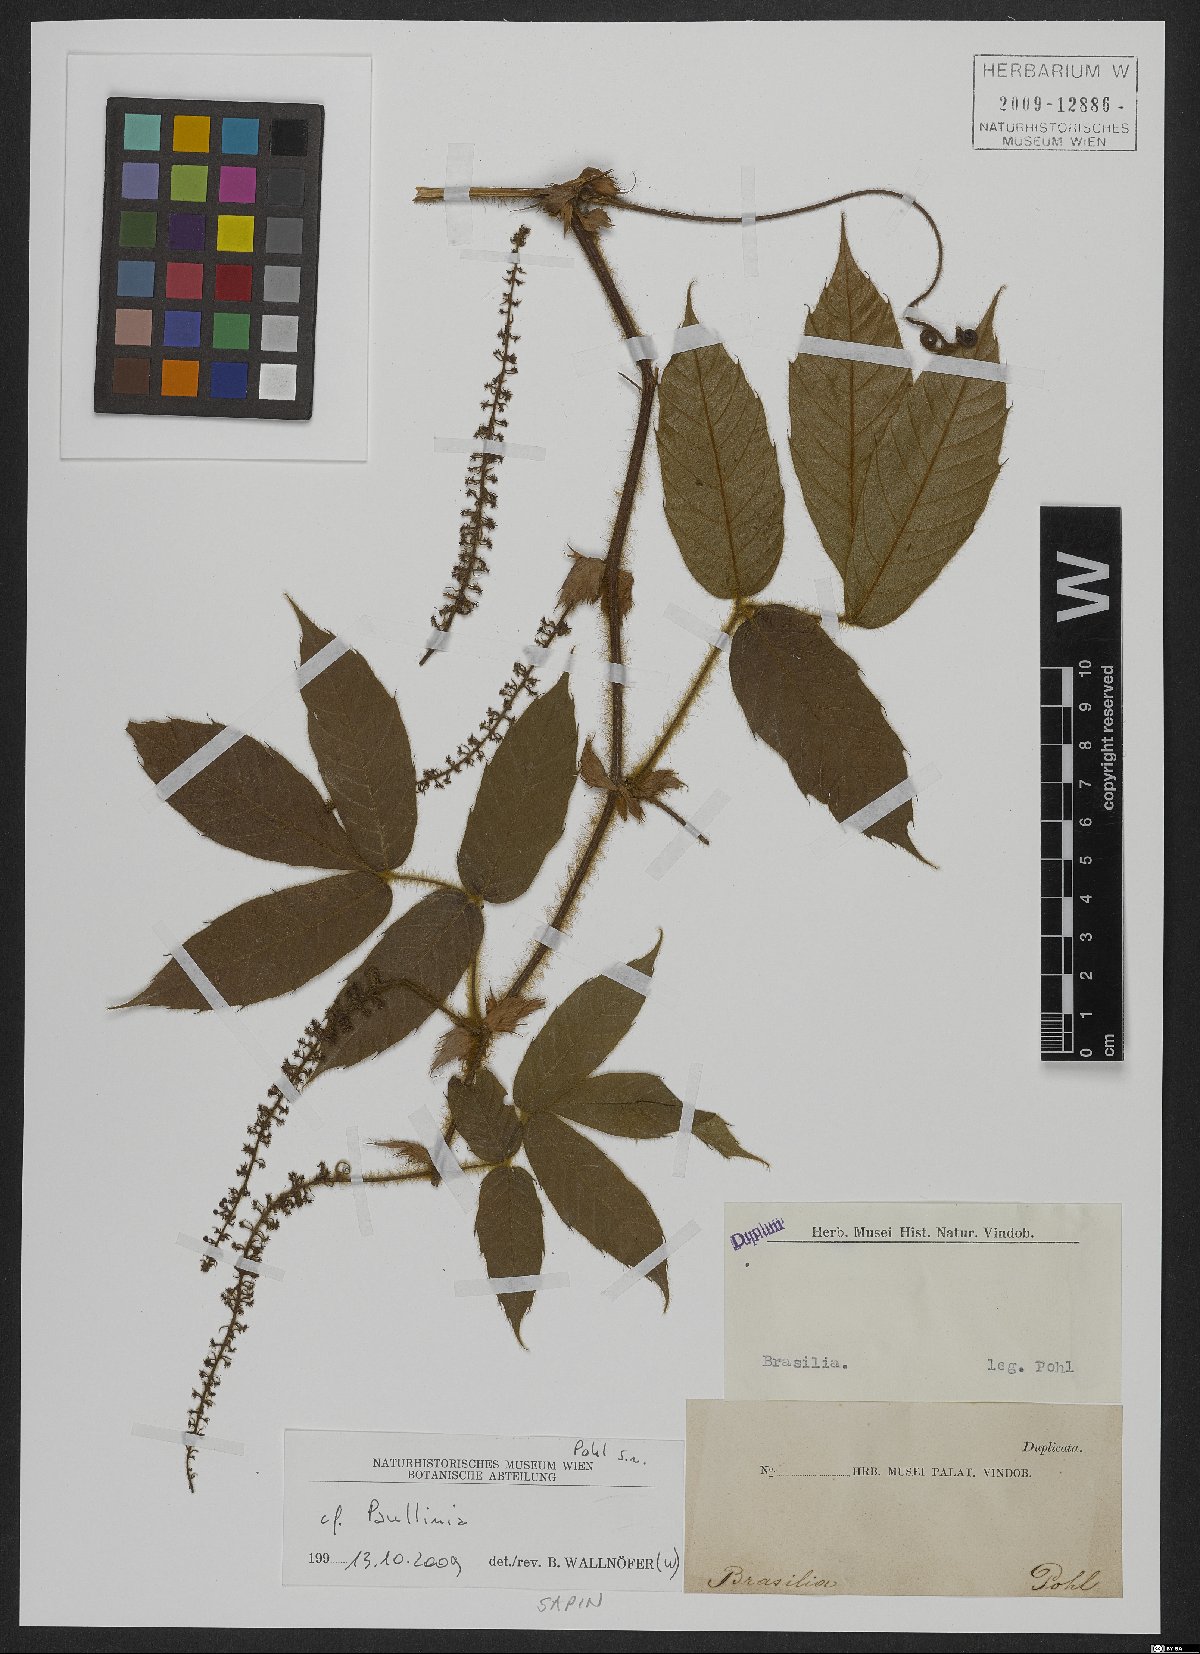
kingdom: Plantae
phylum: Tracheophyta
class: Magnoliopsida
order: Sapindales
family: Sapindaceae
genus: Paullinia
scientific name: Paullinia
